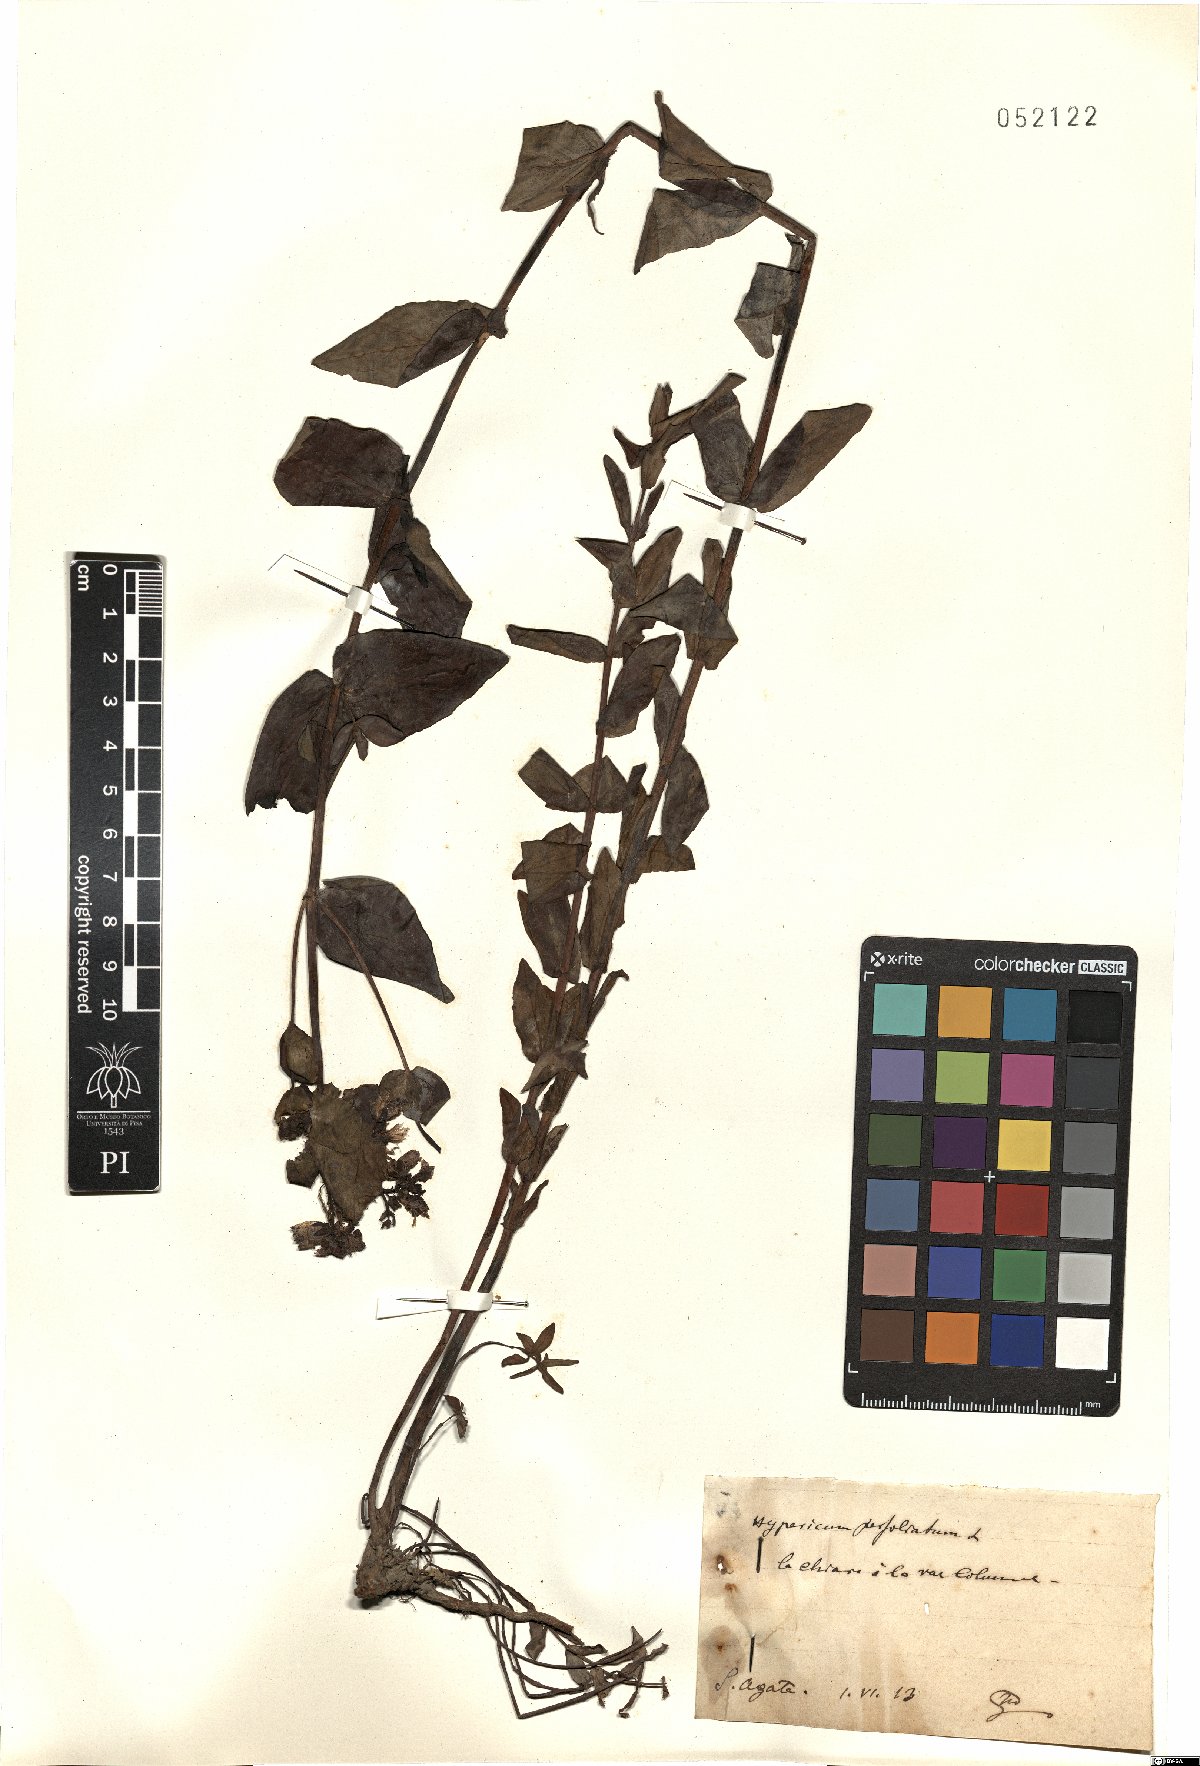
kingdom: Plantae
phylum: Tracheophyta
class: Magnoliopsida
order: Malpighiales
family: Hypericaceae
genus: Hypericum
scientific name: Hypericum perfoliatum
